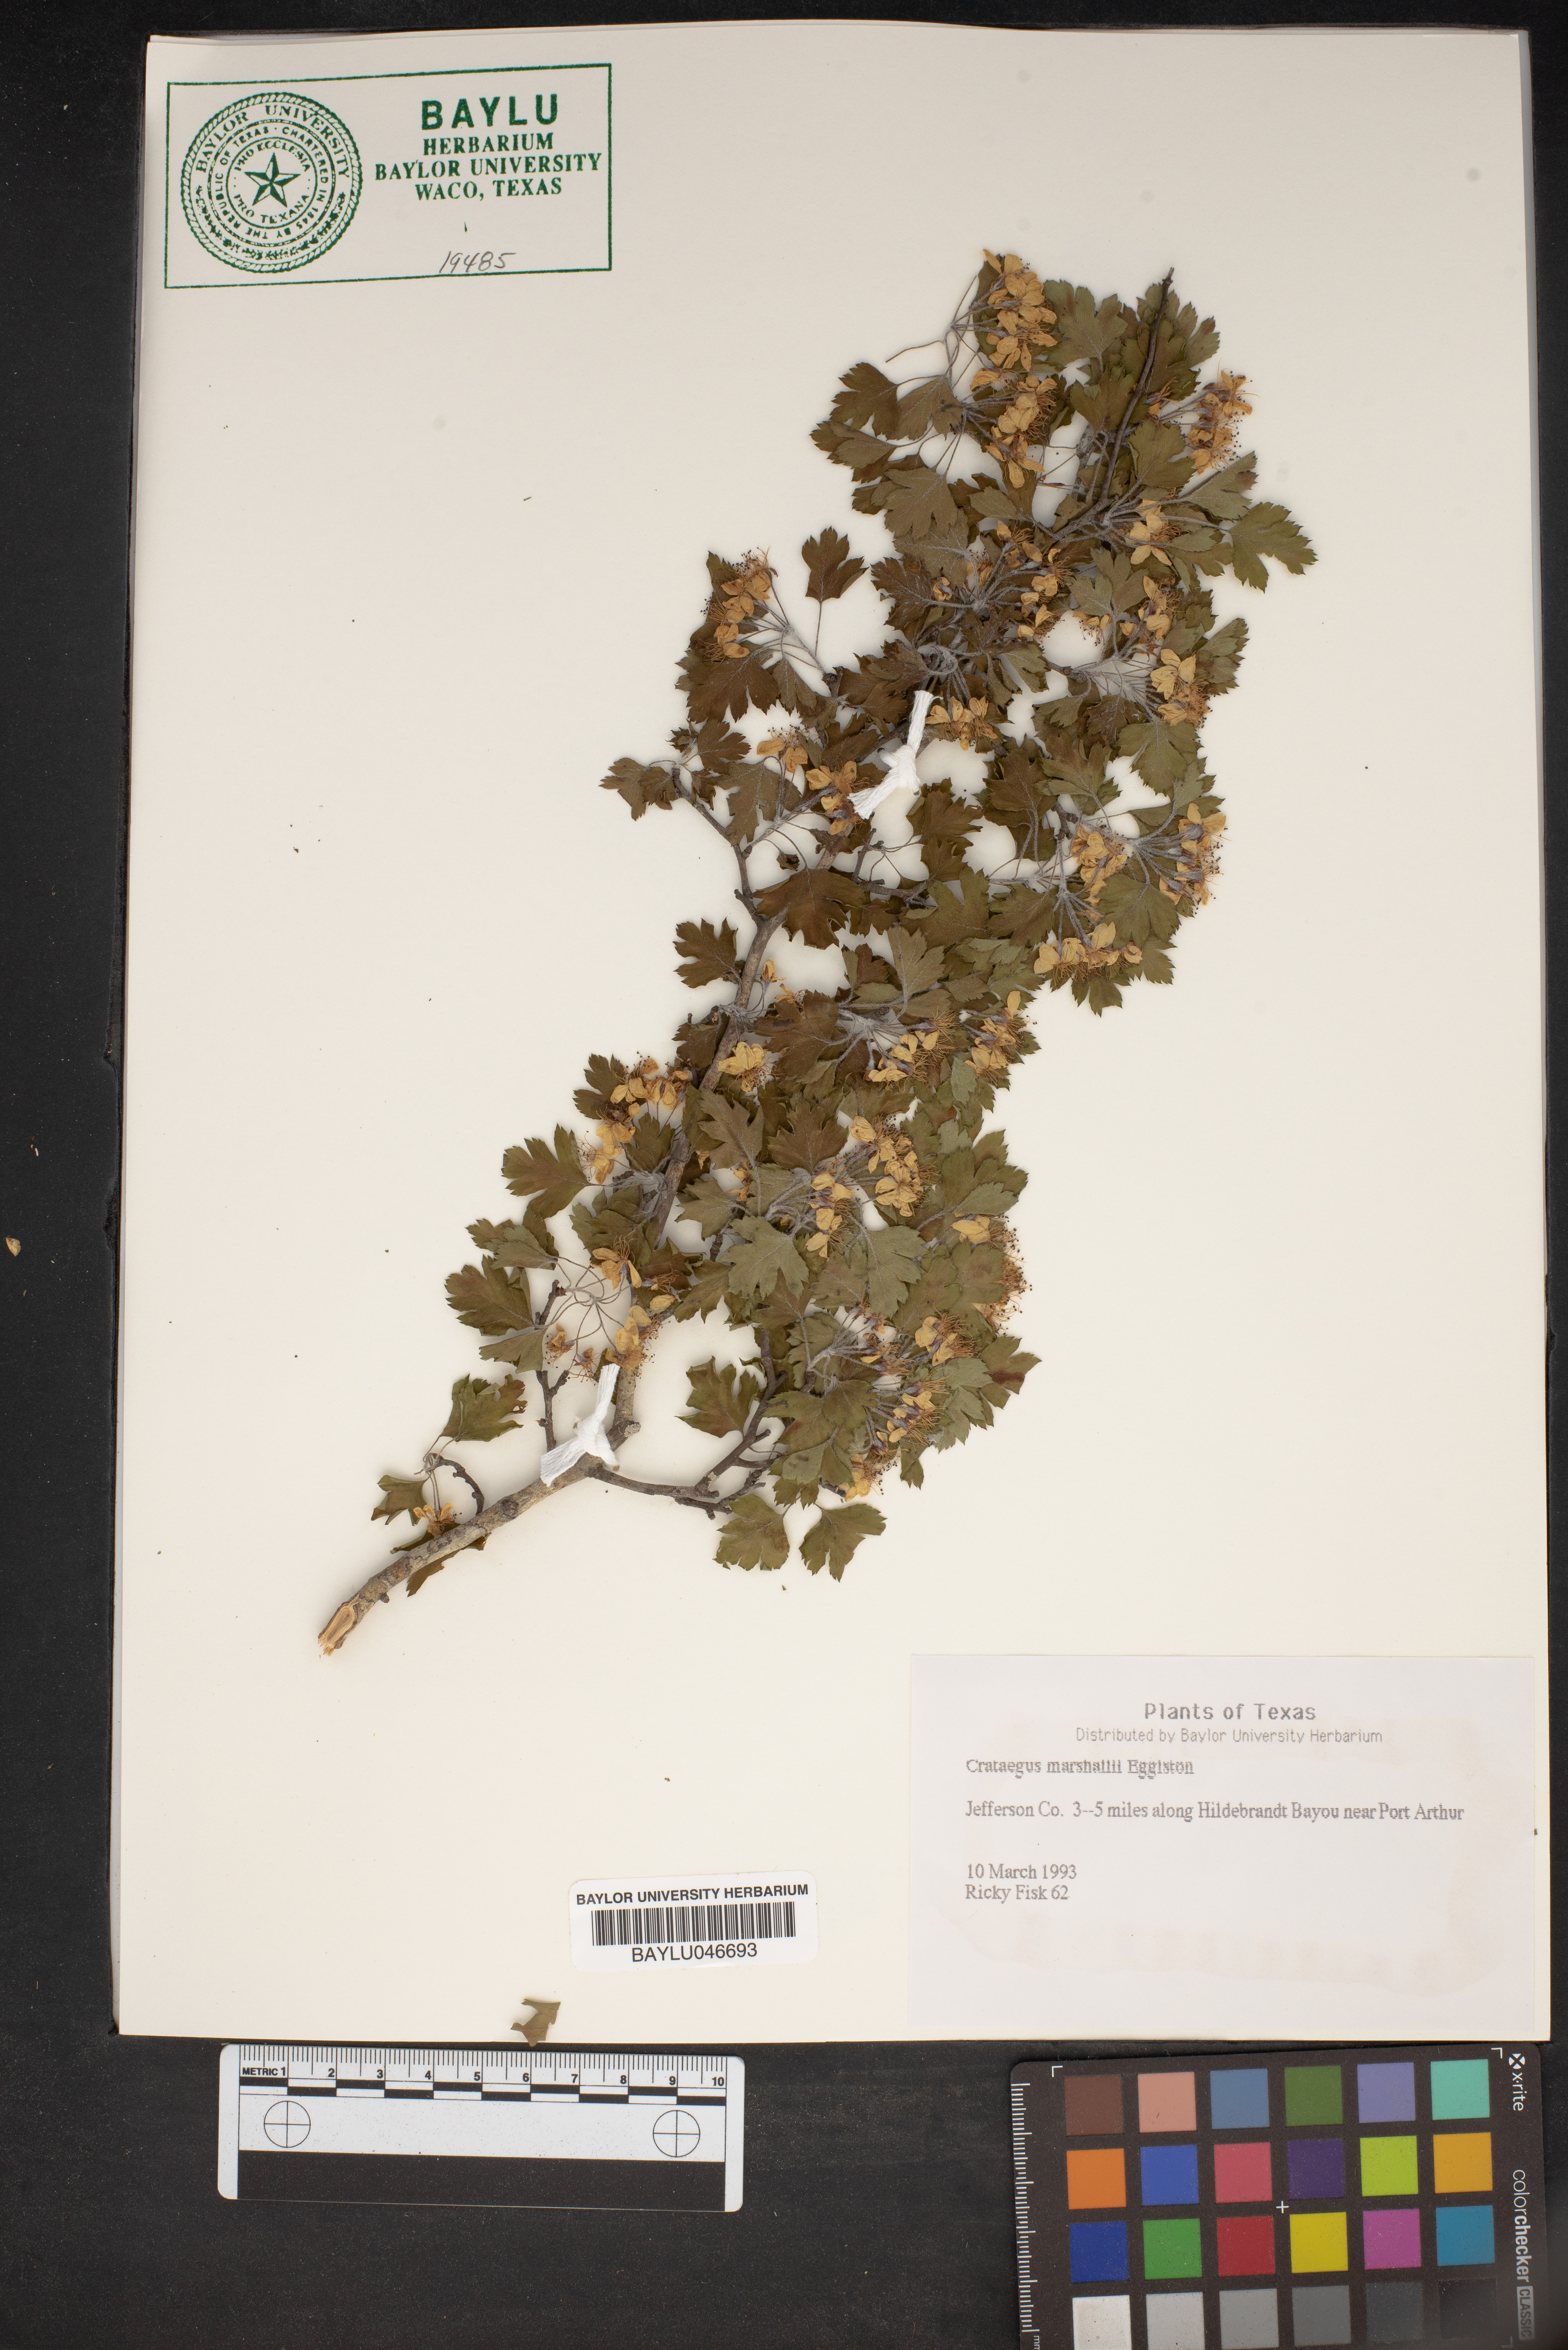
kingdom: Plantae
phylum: Tracheophyta
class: Magnoliopsida
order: Rosales
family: Rosaceae
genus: Crataegus
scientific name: Crataegus marshallii
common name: Parsley-hawthorn
